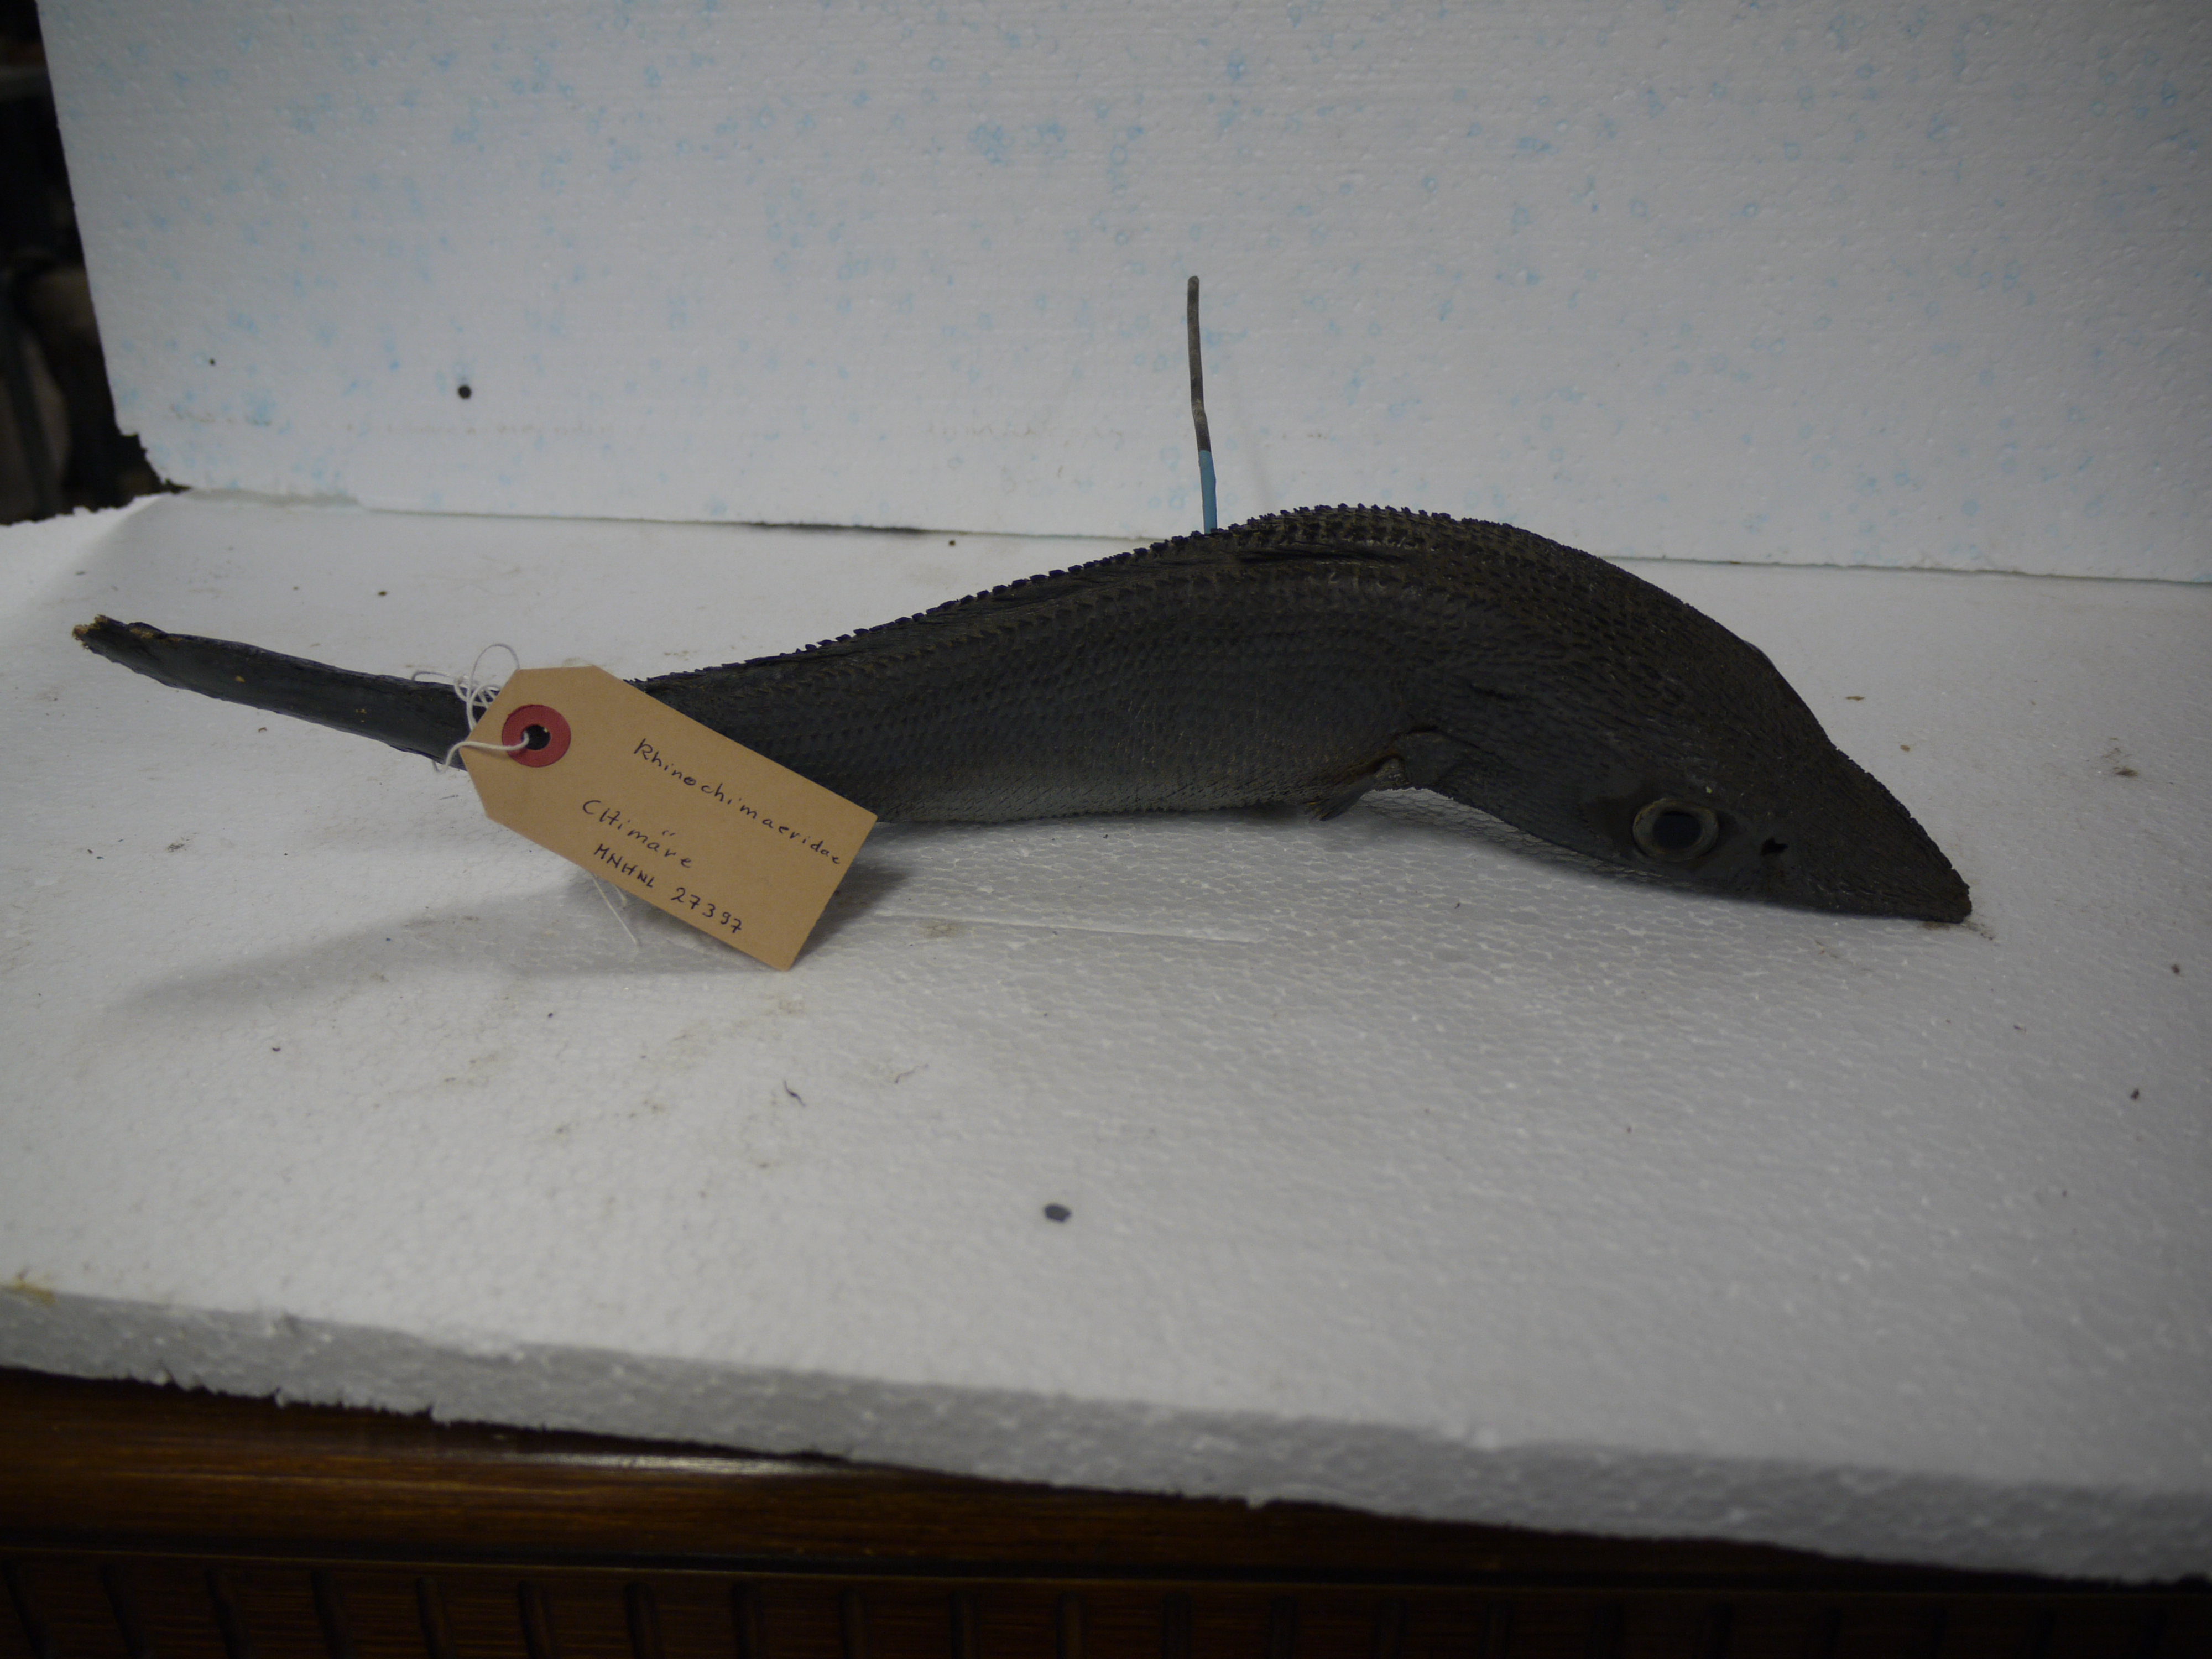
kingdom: Animalia
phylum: Chordata
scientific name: Chordata
